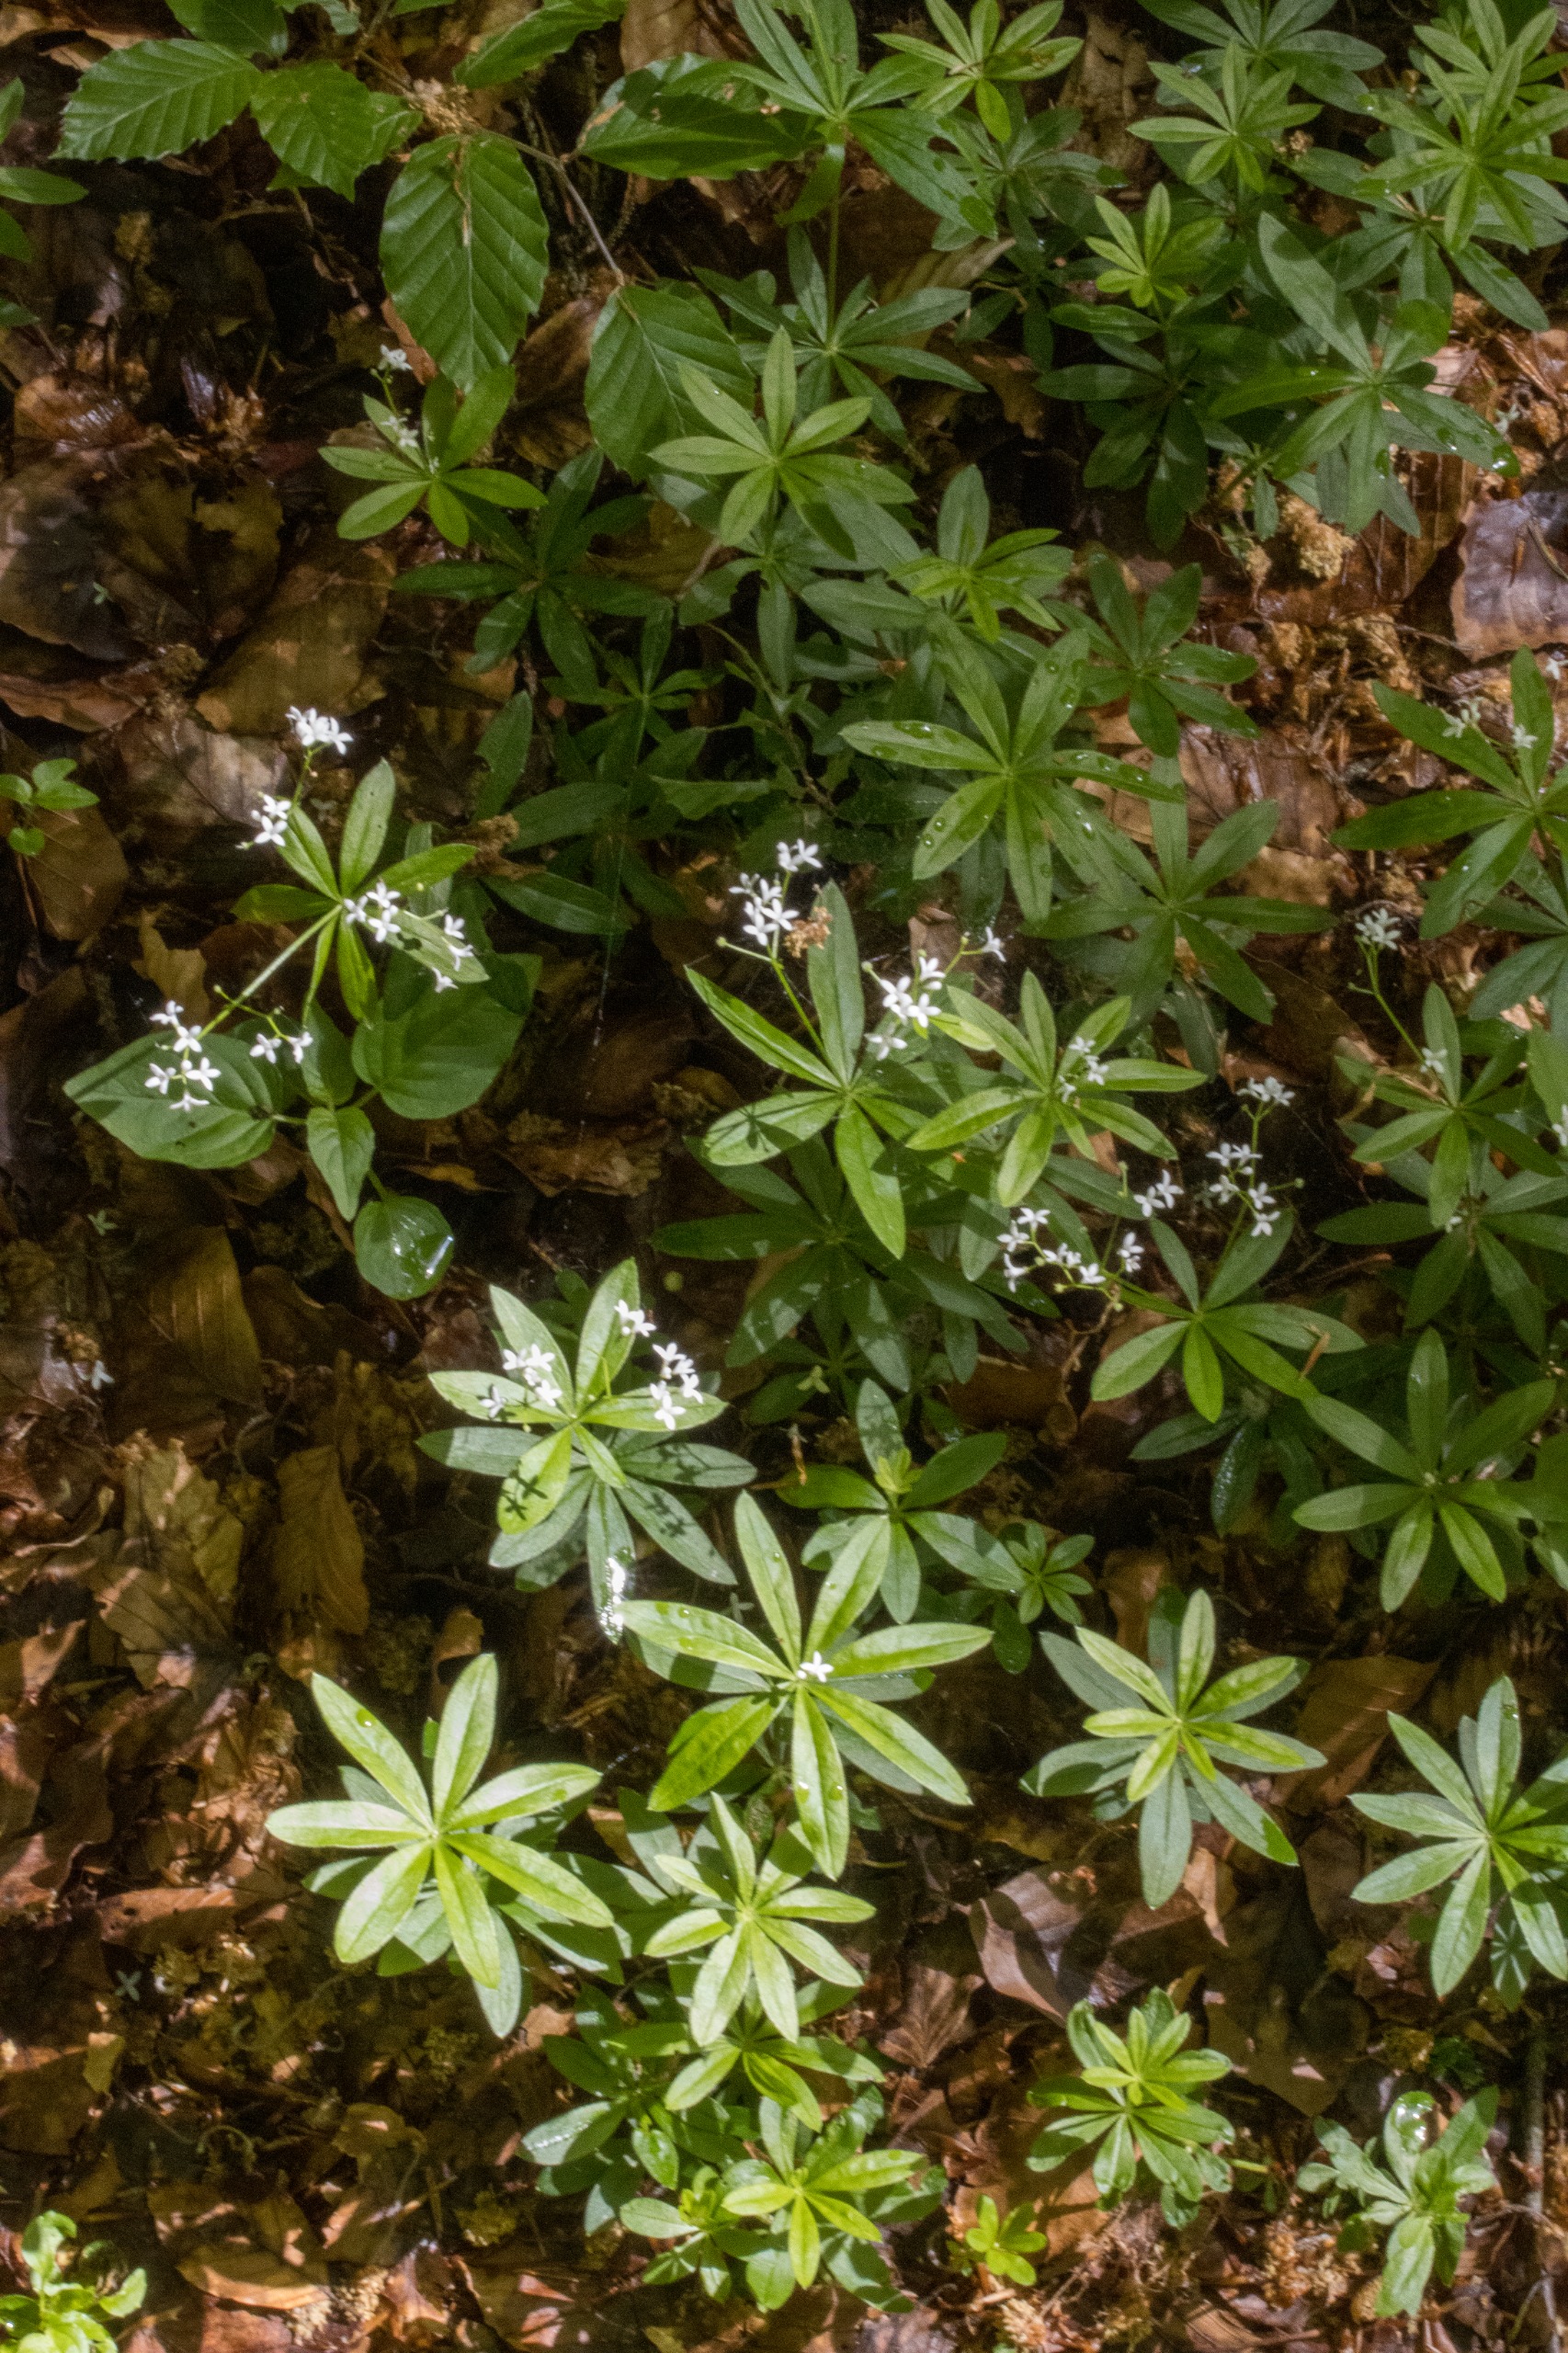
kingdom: Plantae
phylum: Tracheophyta
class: Magnoliopsida
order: Gentianales
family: Rubiaceae
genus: Galium
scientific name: Galium odoratum
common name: Skovmærke
